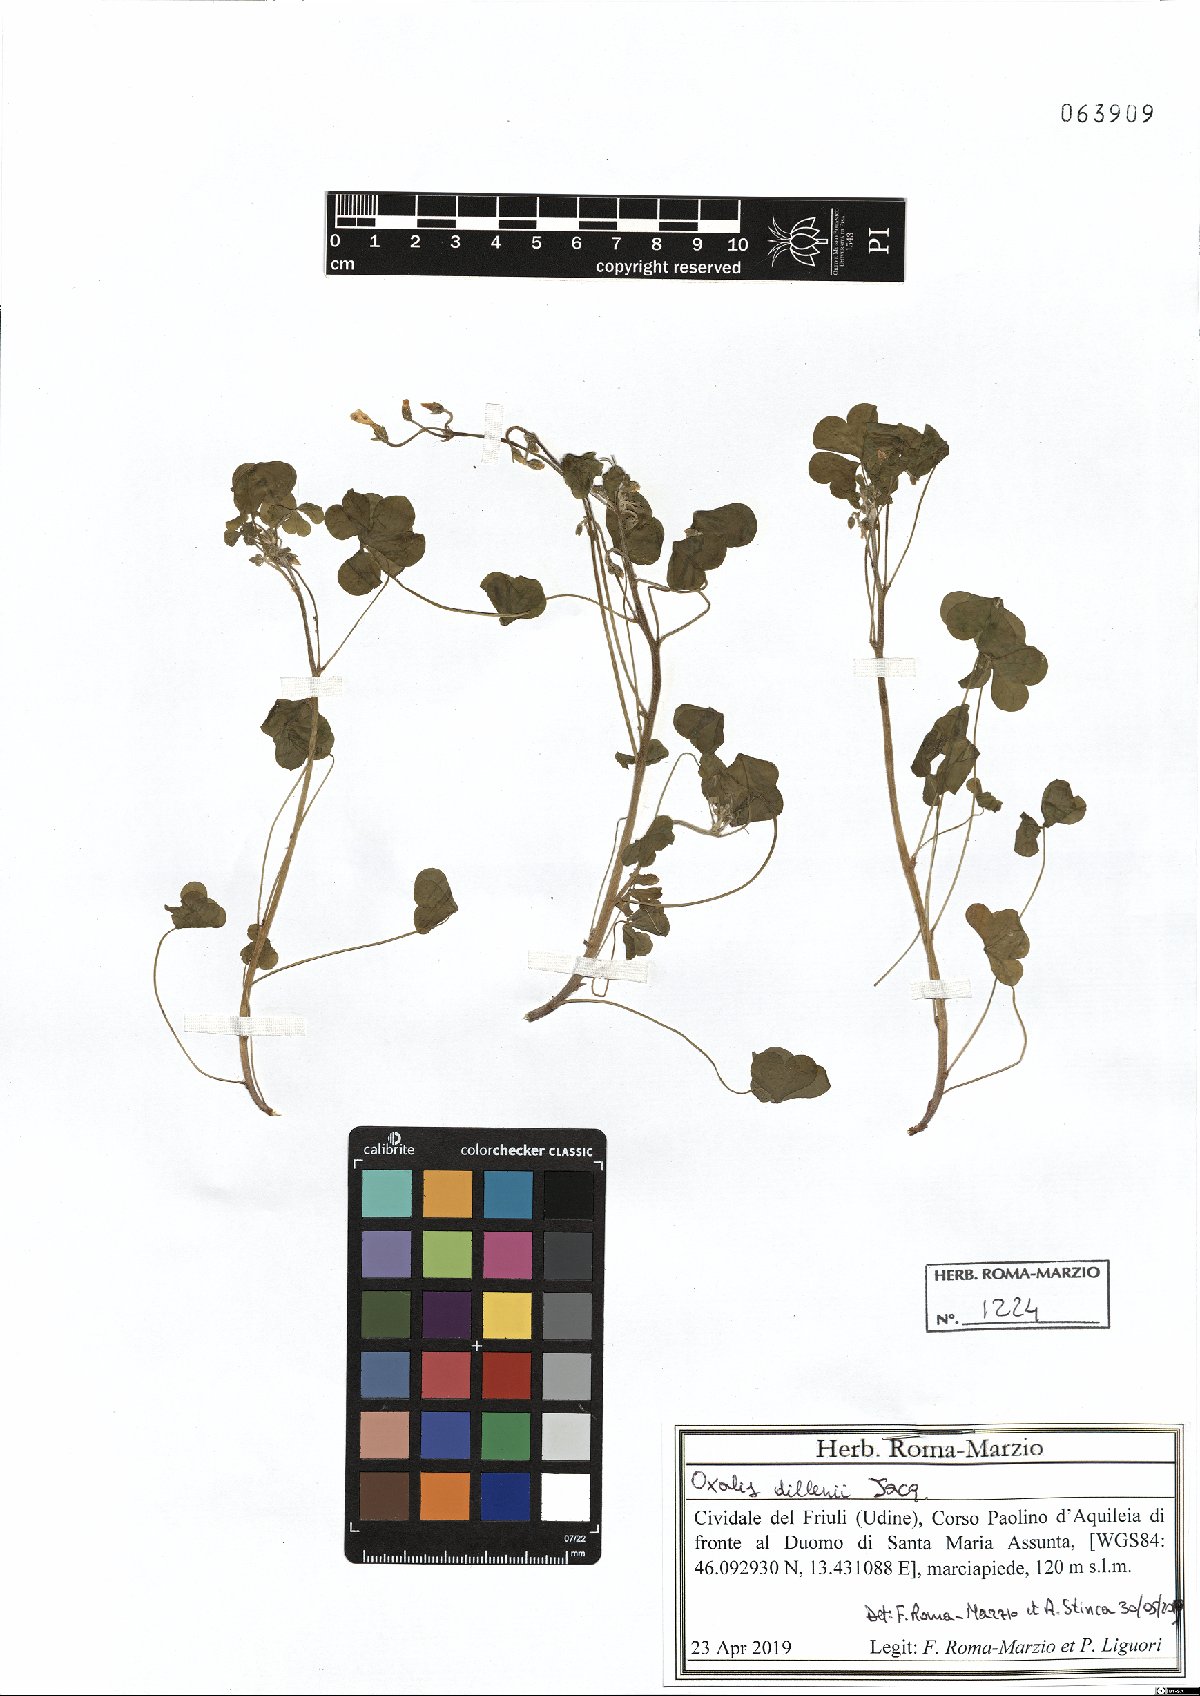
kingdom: Plantae
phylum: Tracheophyta
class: Magnoliopsida
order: Oxalidales
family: Oxalidaceae
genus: Oxalis
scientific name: Oxalis dillenii
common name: Sussex yellow-sorrel
